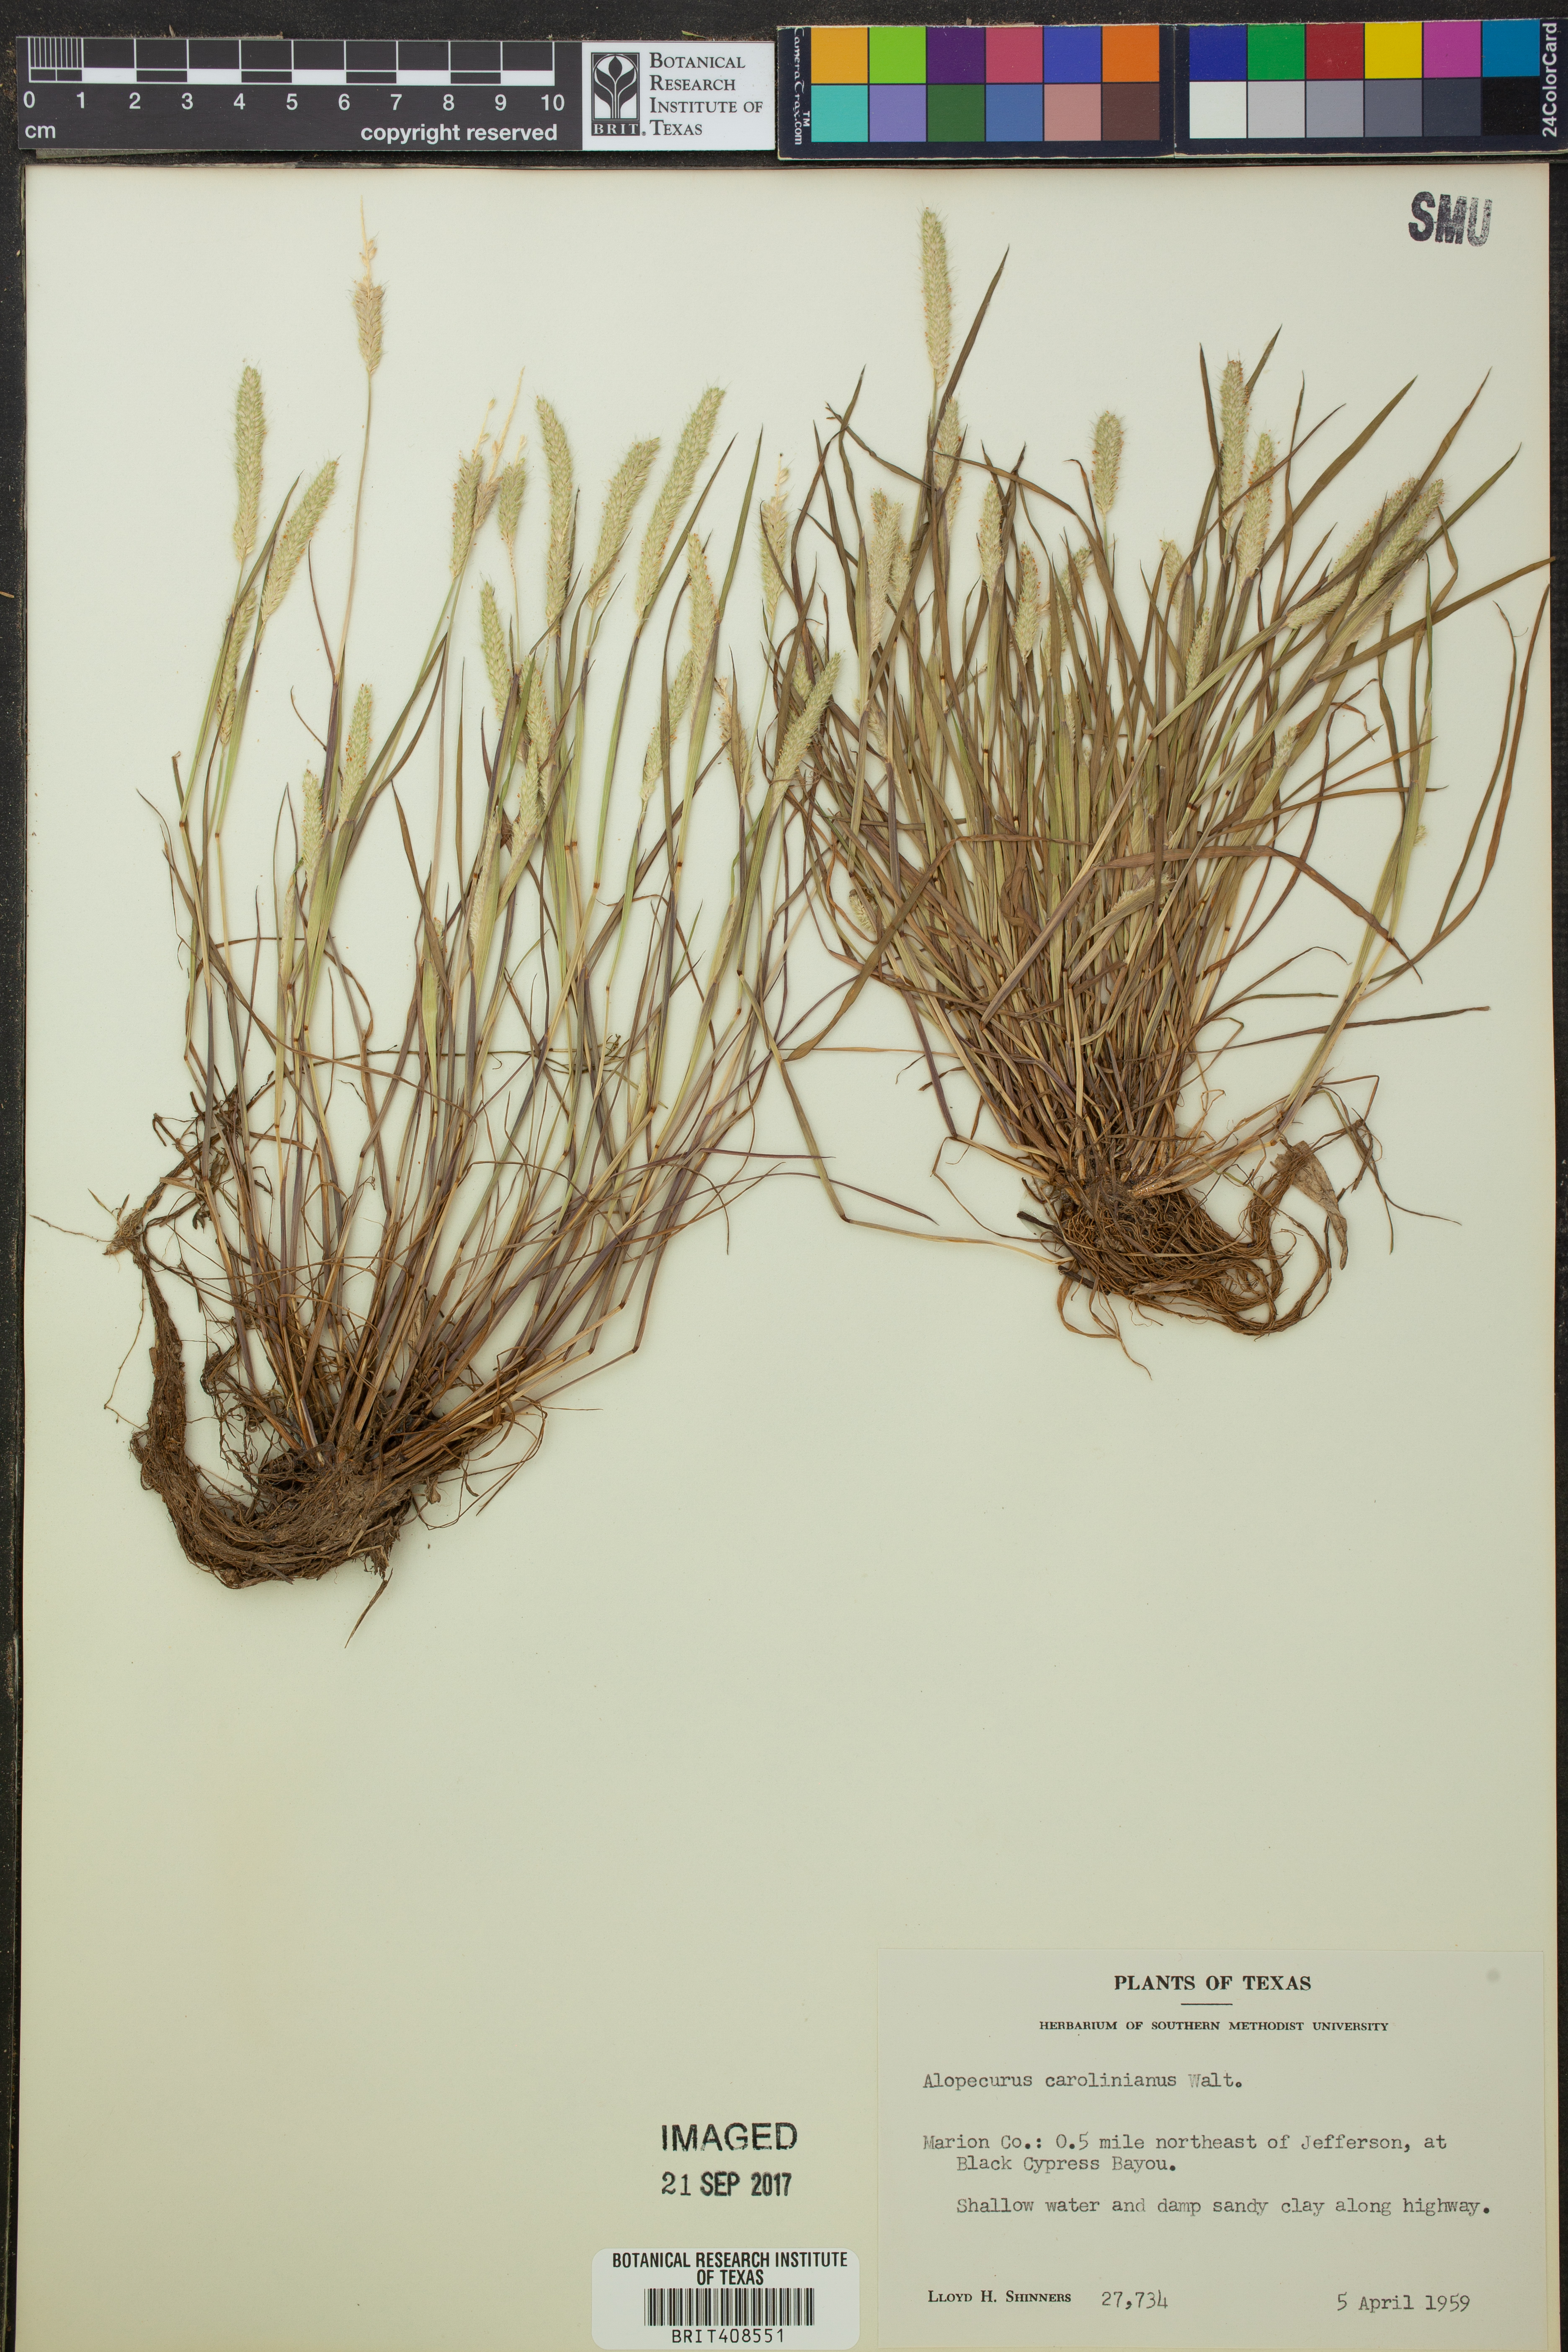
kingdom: Plantae
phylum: Tracheophyta
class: Liliopsida
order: Poales
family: Poaceae
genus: Alopecurus
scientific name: Alopecurus carolinianus
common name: Tufted foxtail
